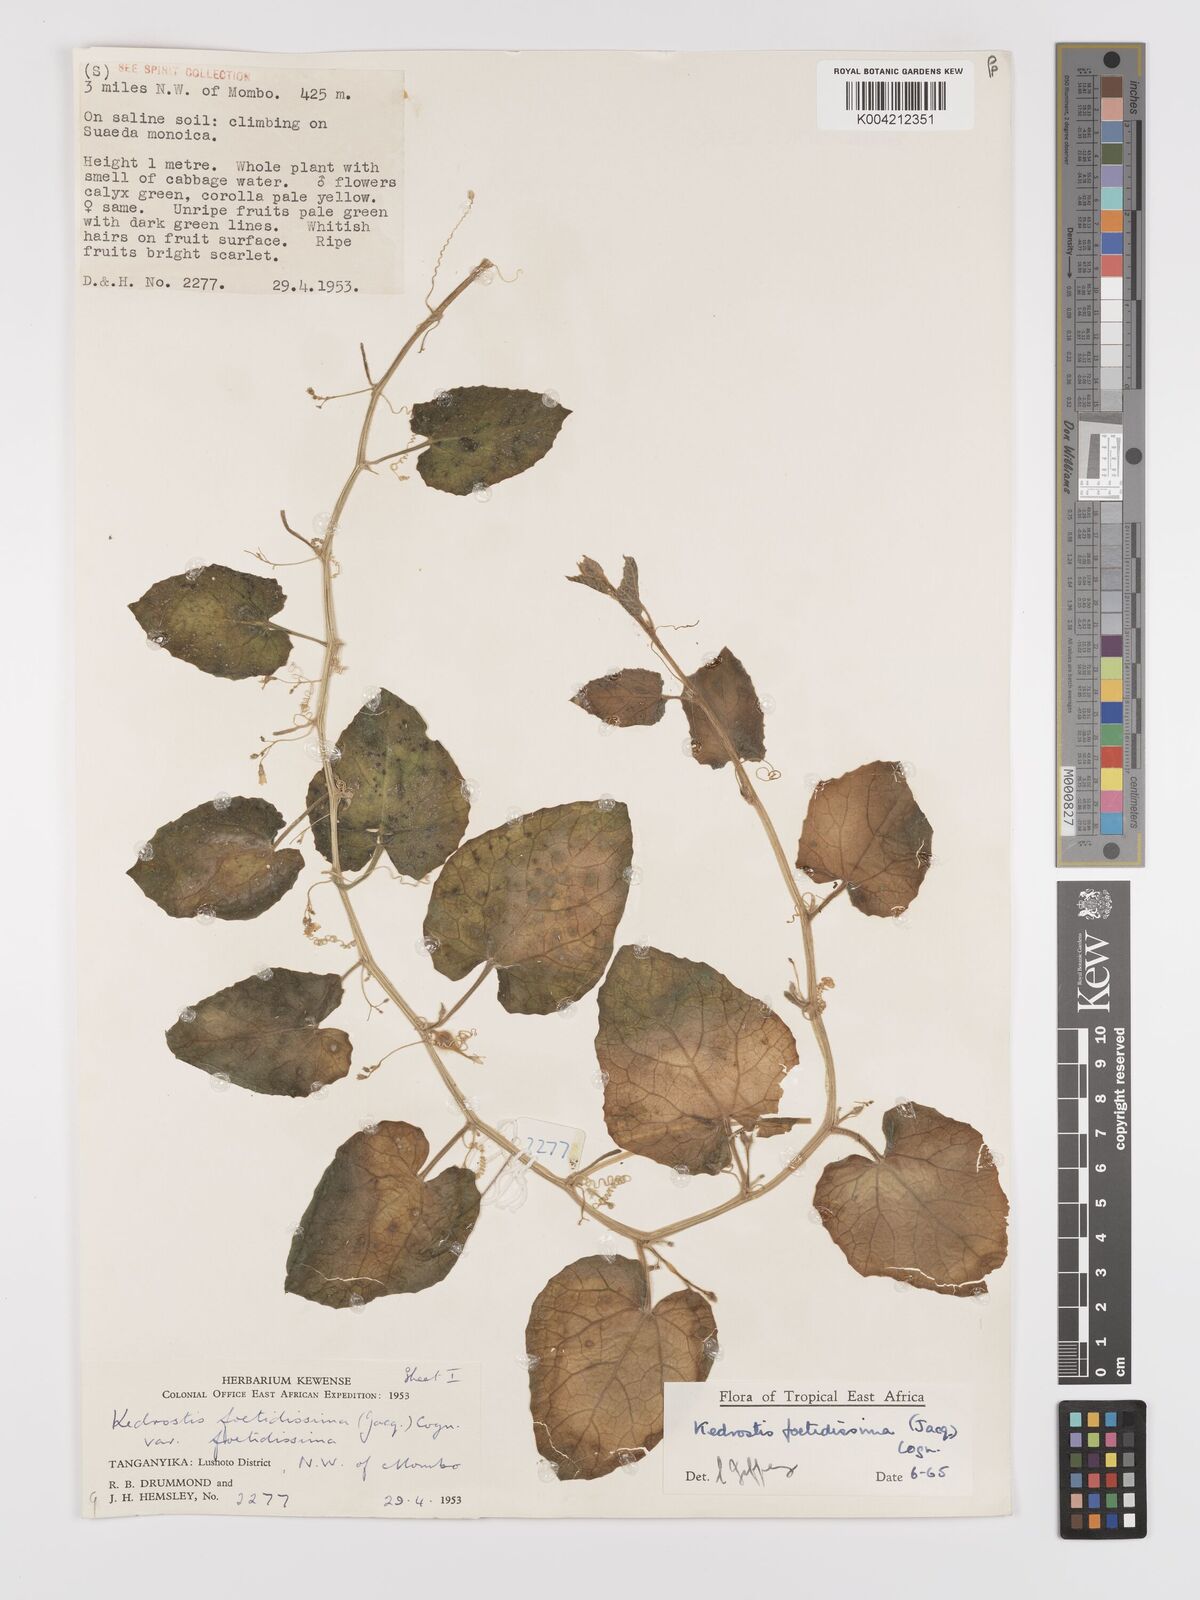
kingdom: Plantae
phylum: Tracheophyta
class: Magnoliopsida
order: Cucurbitales
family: Cucurbitaceae
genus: Kedrostis
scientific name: Kedrostis foetidissima
